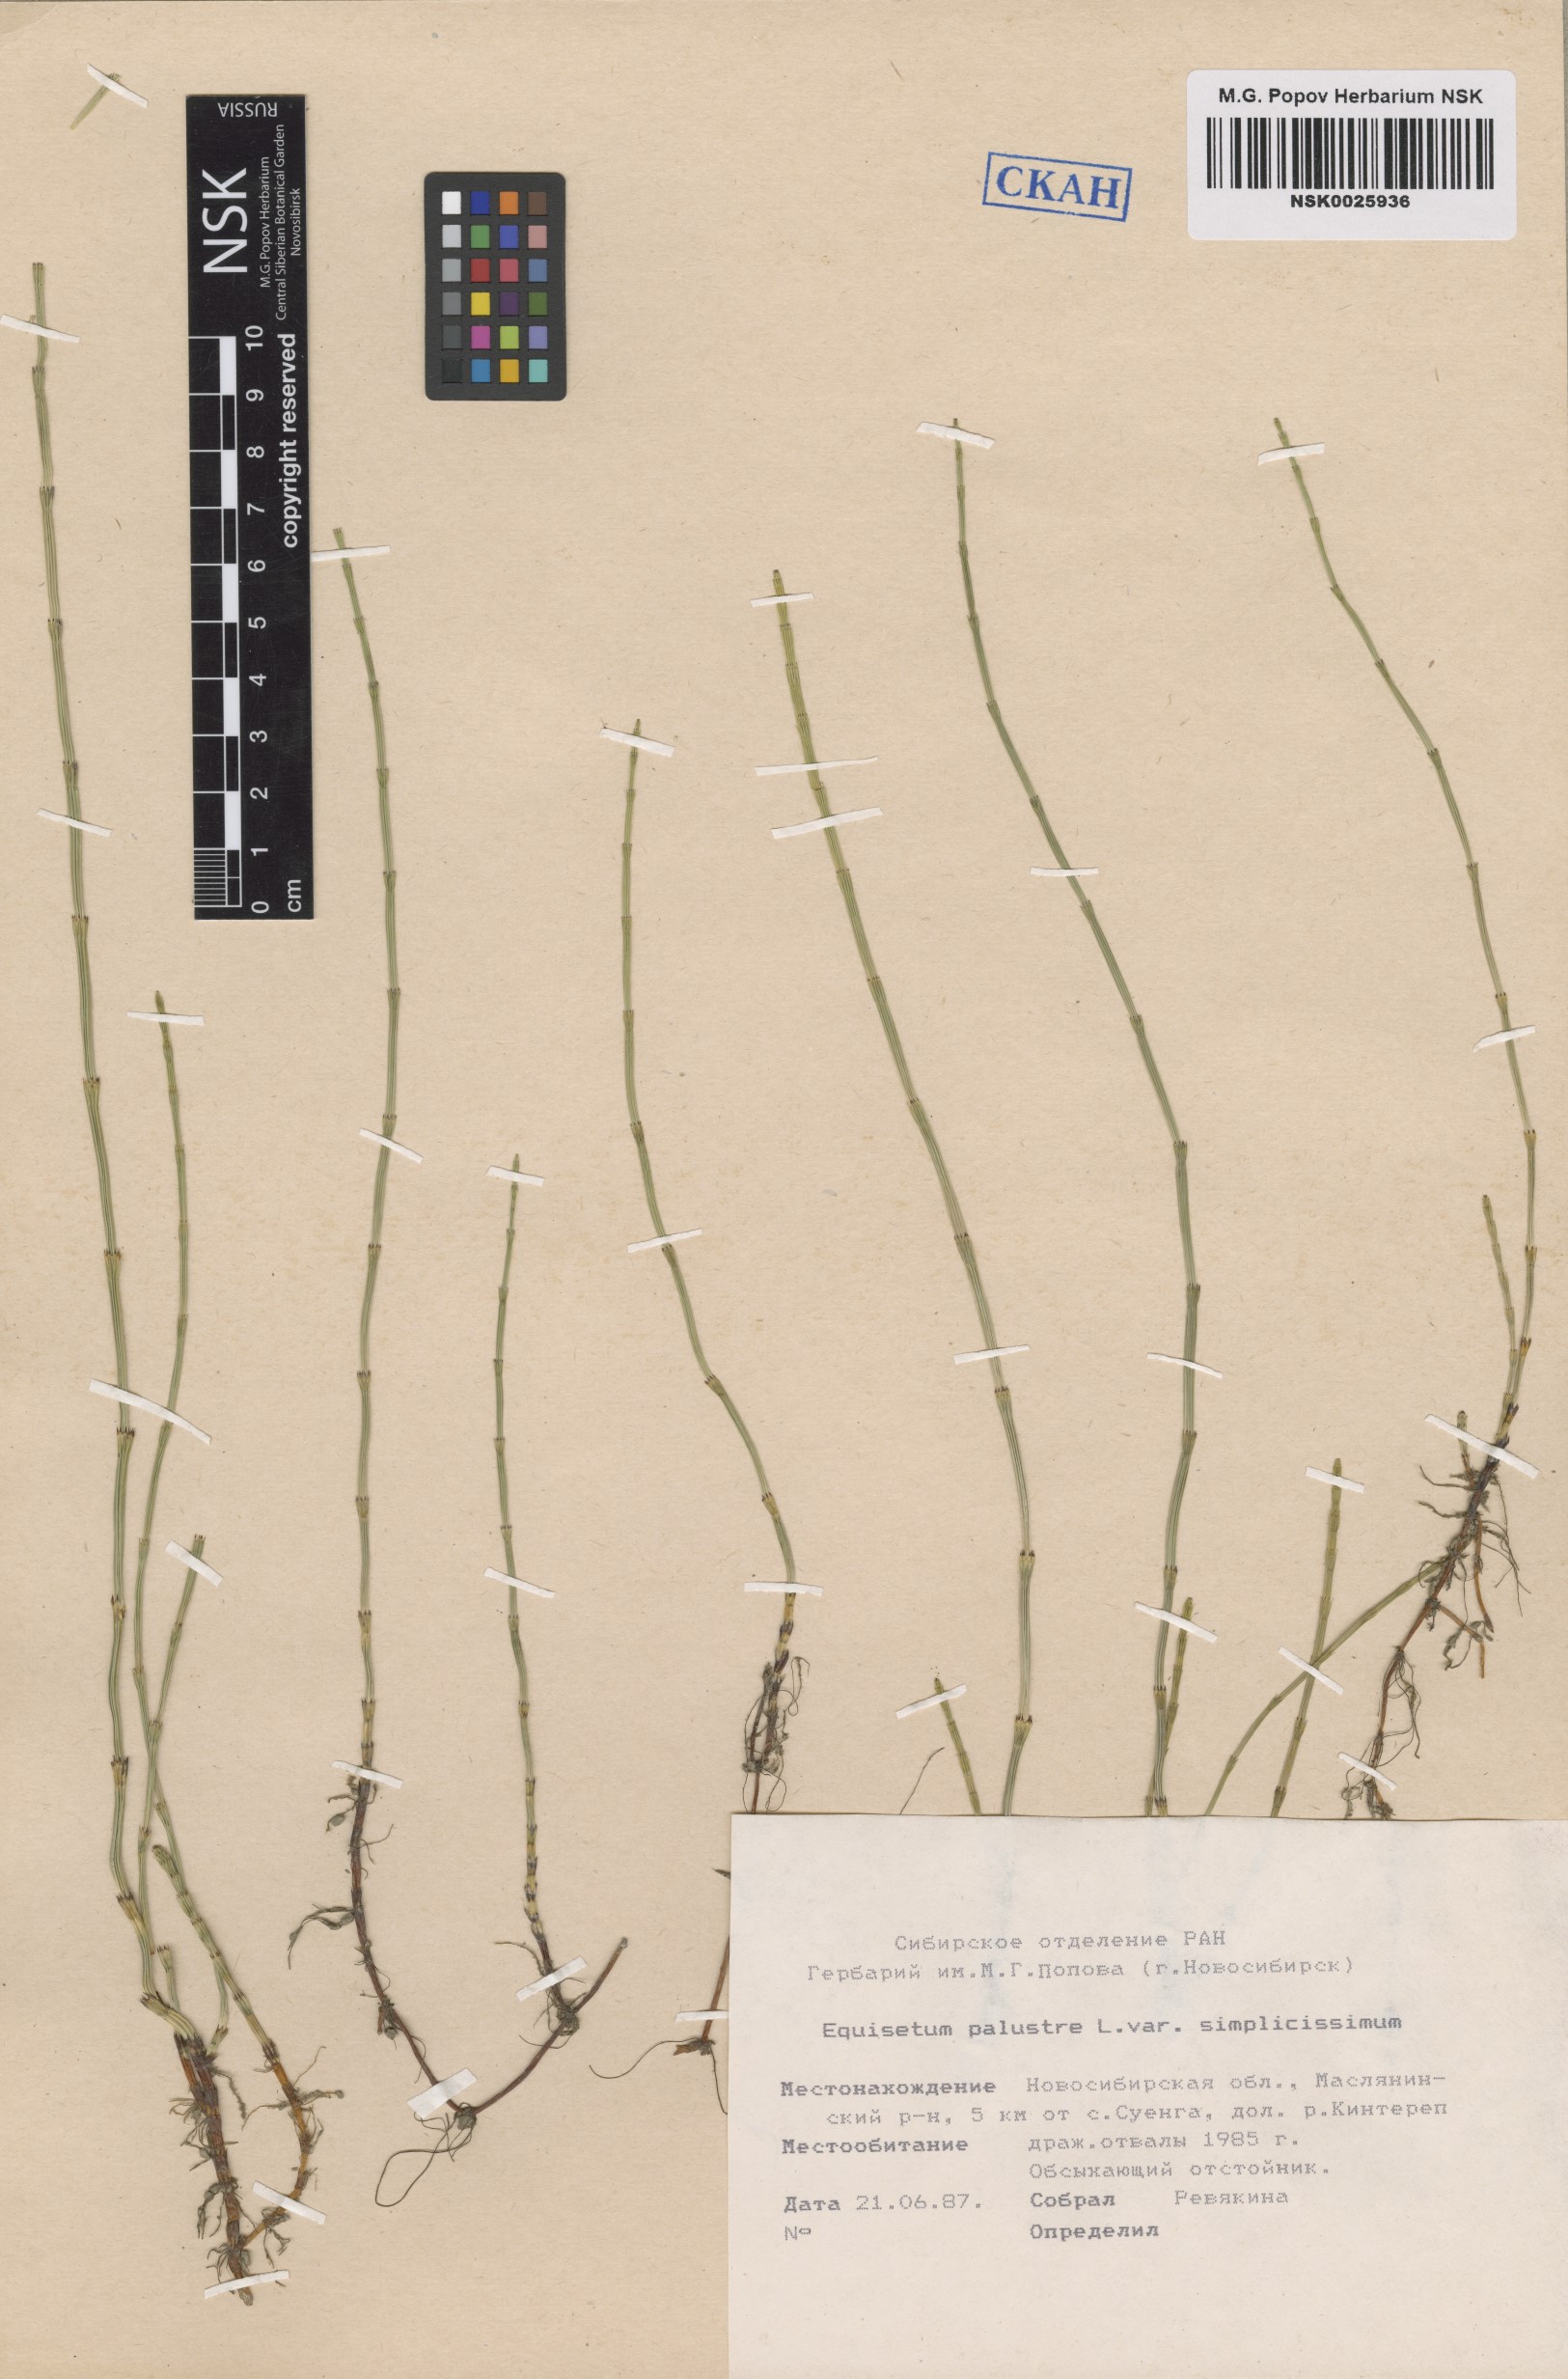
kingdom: Plantae
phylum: Tracheophyta
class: Polypodiopsida
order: Equisetales
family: Equisetaceae
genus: Equisetum
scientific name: Equisetum palustre
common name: Marsh horsetail
